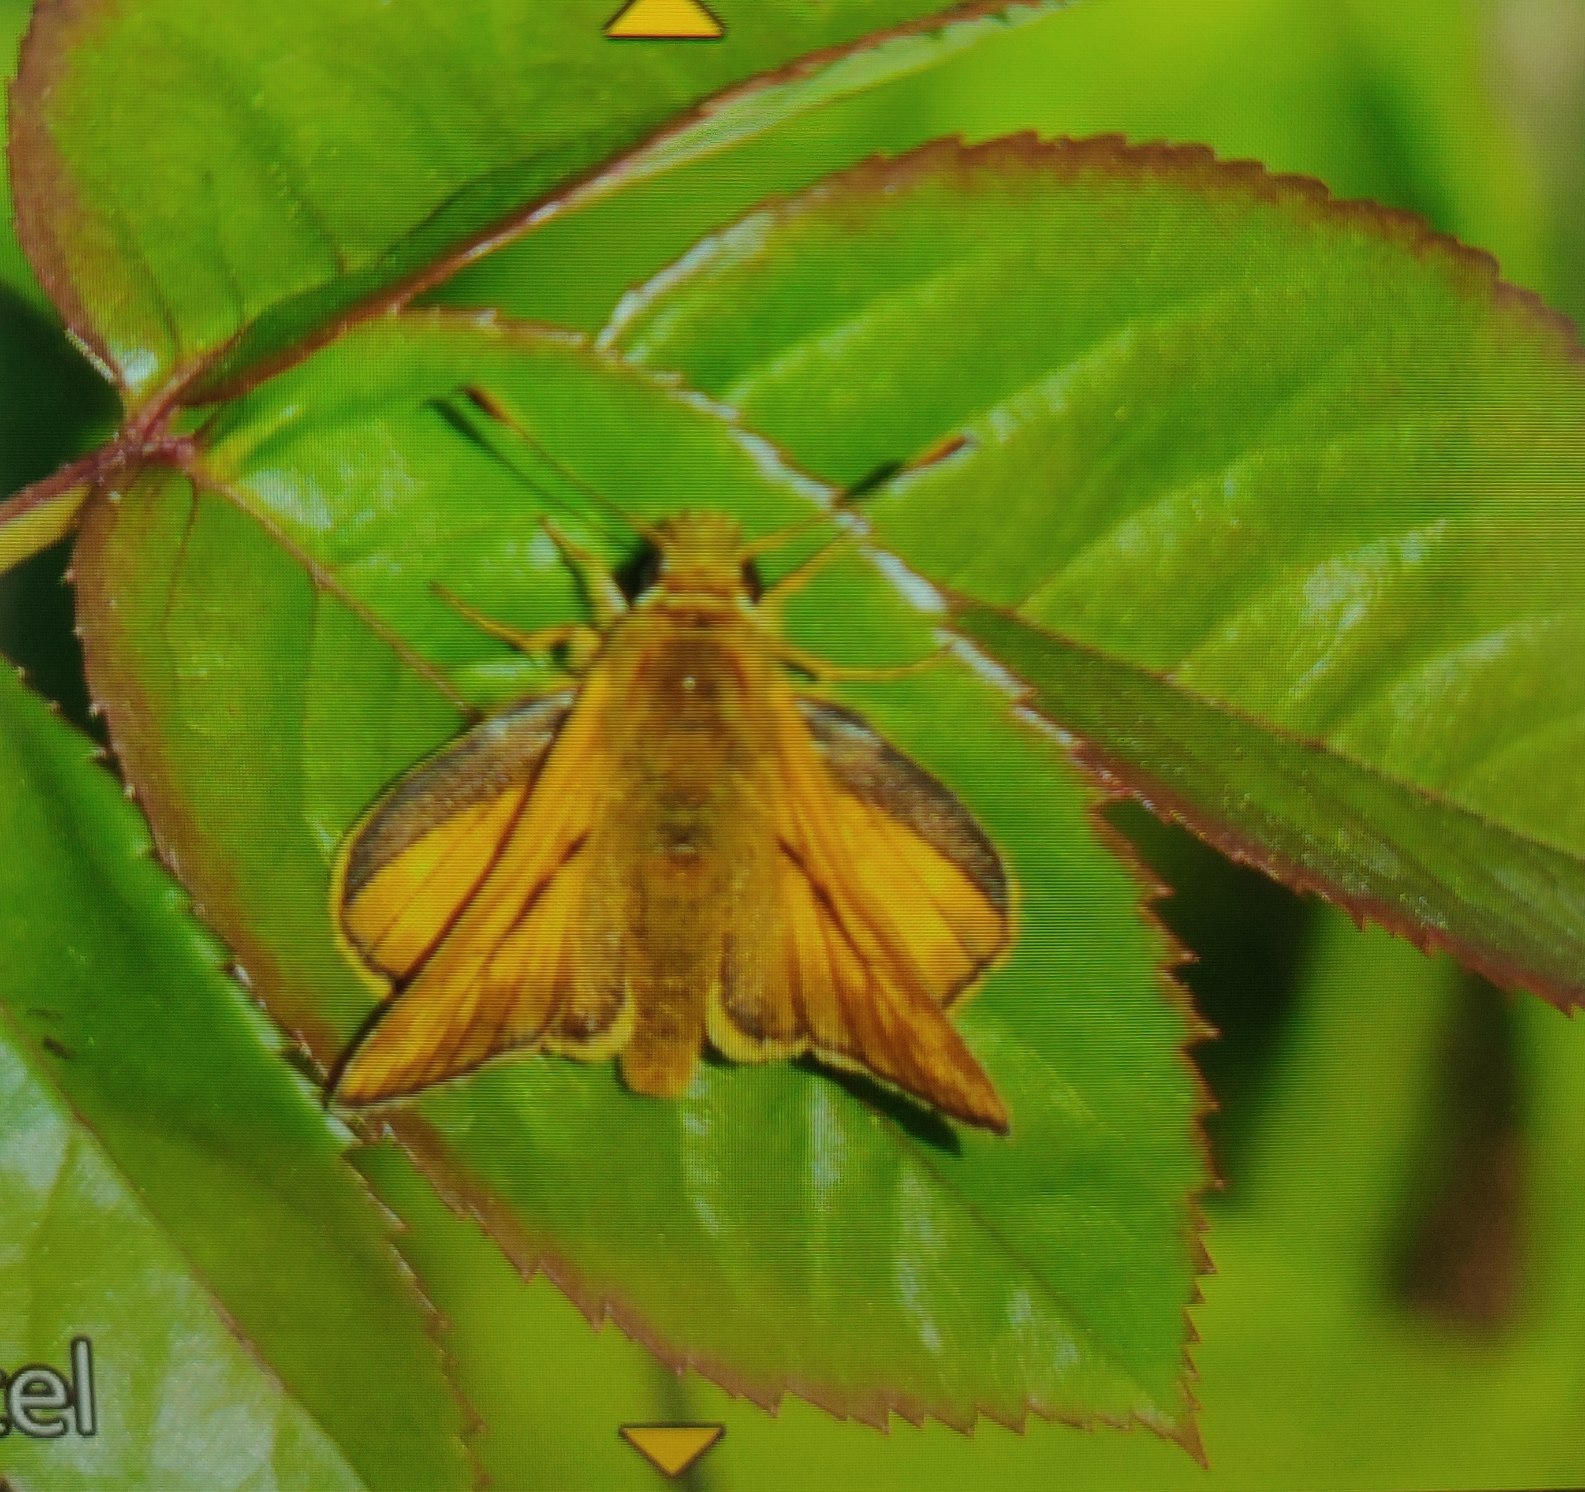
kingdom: Animalia
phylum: Arthropoda
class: Insecta
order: Lepidoptera
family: Hesperiidae
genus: Ochlodes
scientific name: Ochlodes venata
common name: Stor bredpande
